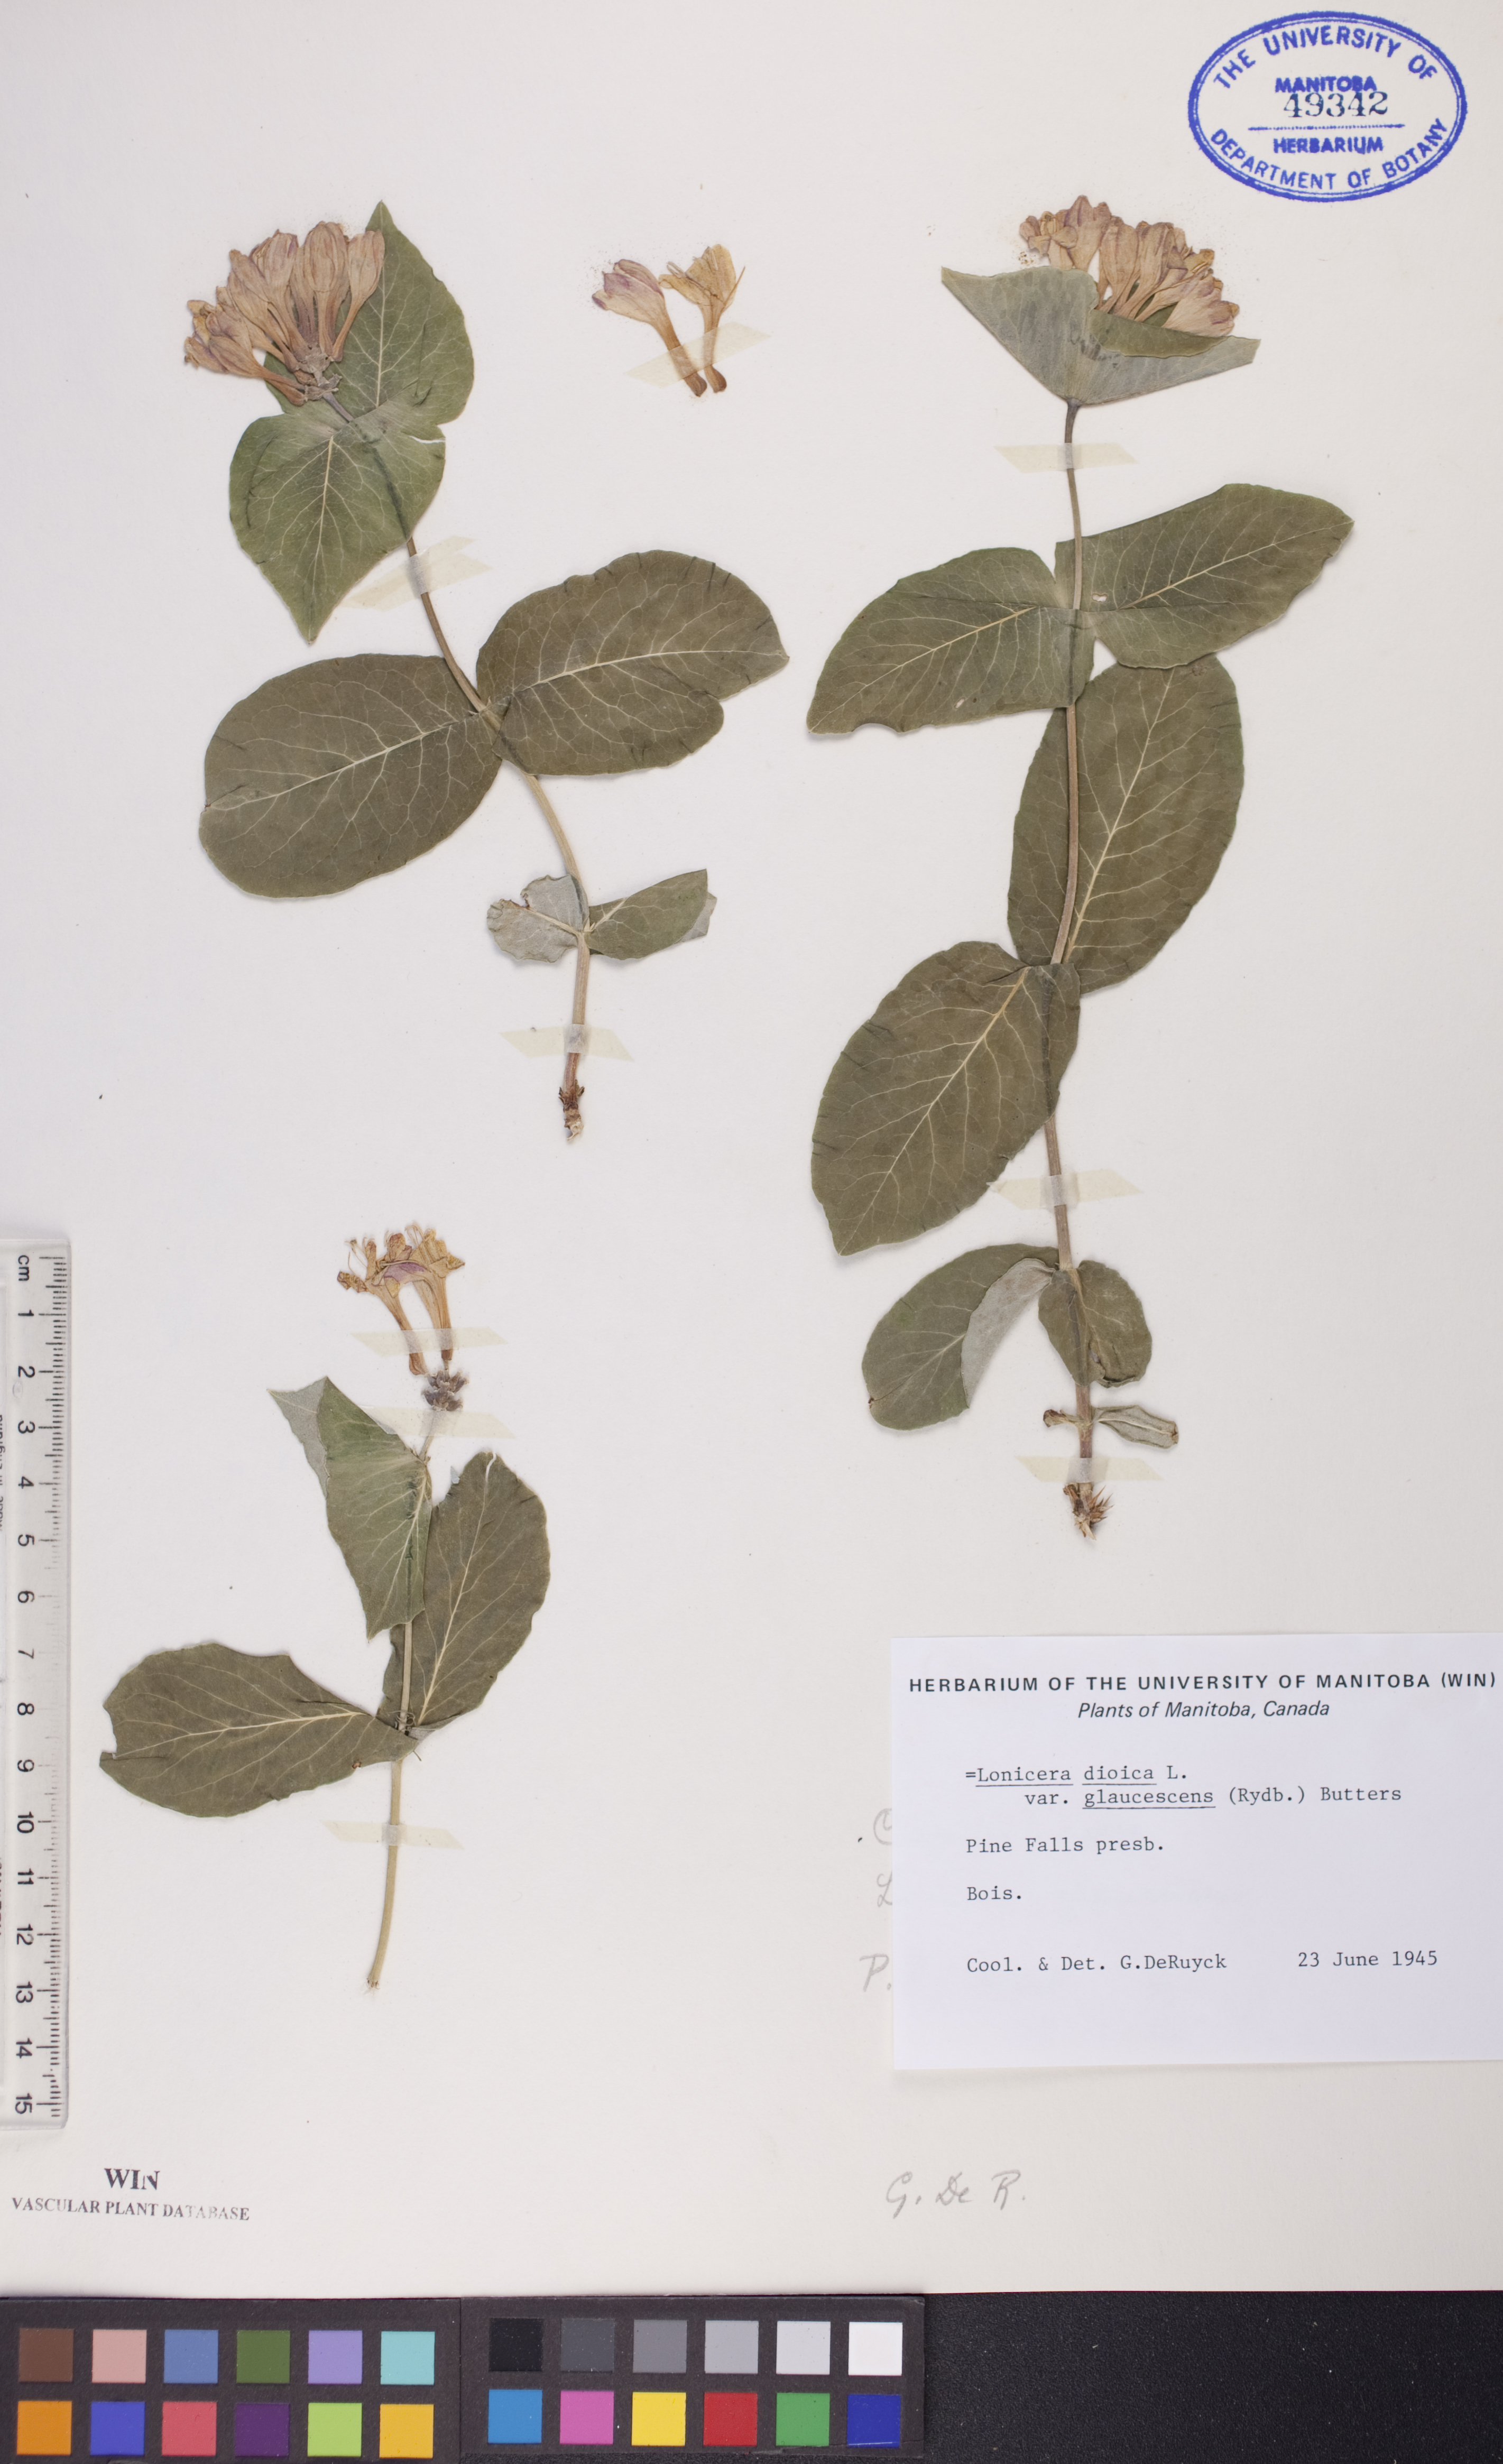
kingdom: Plantae
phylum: Tracheophyta
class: Magnoliopsida
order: Dipsacales
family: Caprifoliaceae
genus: Lonicera
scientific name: Lonicera dioica
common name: Limber honeysuckle
